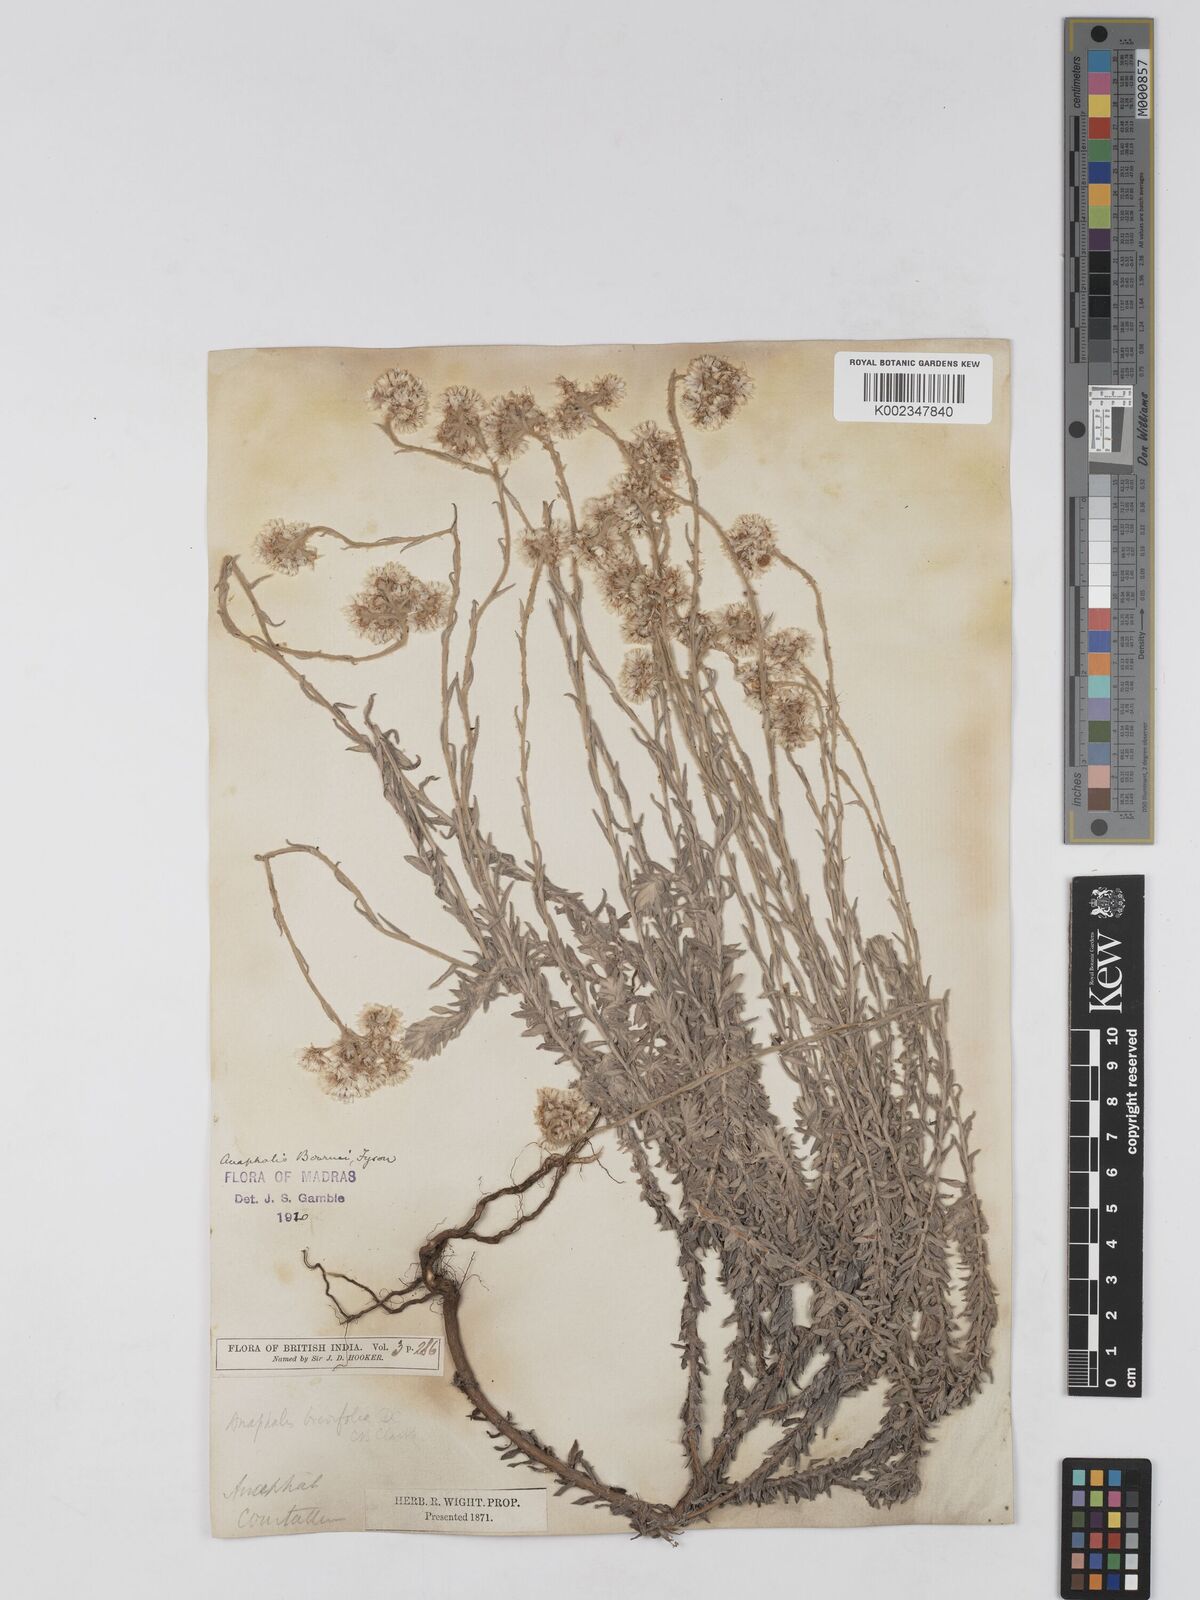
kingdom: Plantae
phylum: Tracheophyta
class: Magnoliopsida
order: Asterales
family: Asteraceae
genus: Anaphalis
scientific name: Anaphalis bournei
